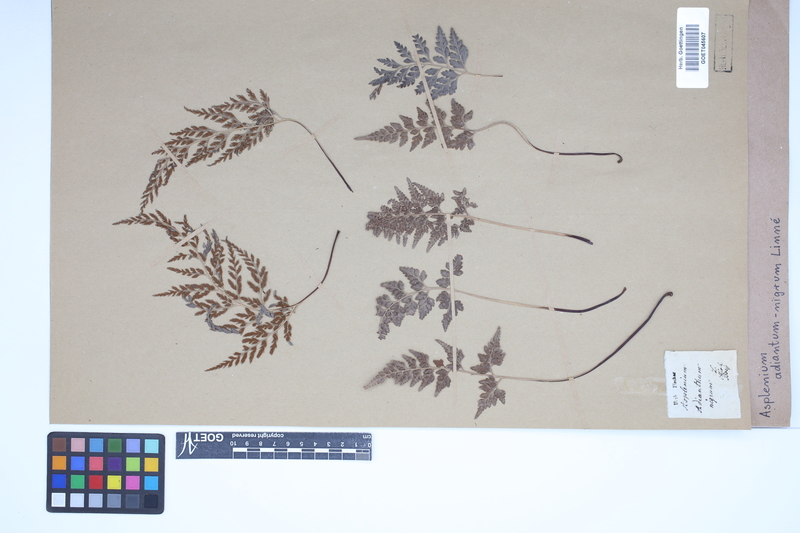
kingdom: Plantae
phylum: Tracheophyta
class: Polypodiopsida
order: Polypodiales
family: Aspleniaceae
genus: Asplenium
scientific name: Asplenium adiantum-nigrum
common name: Black spleenwort
